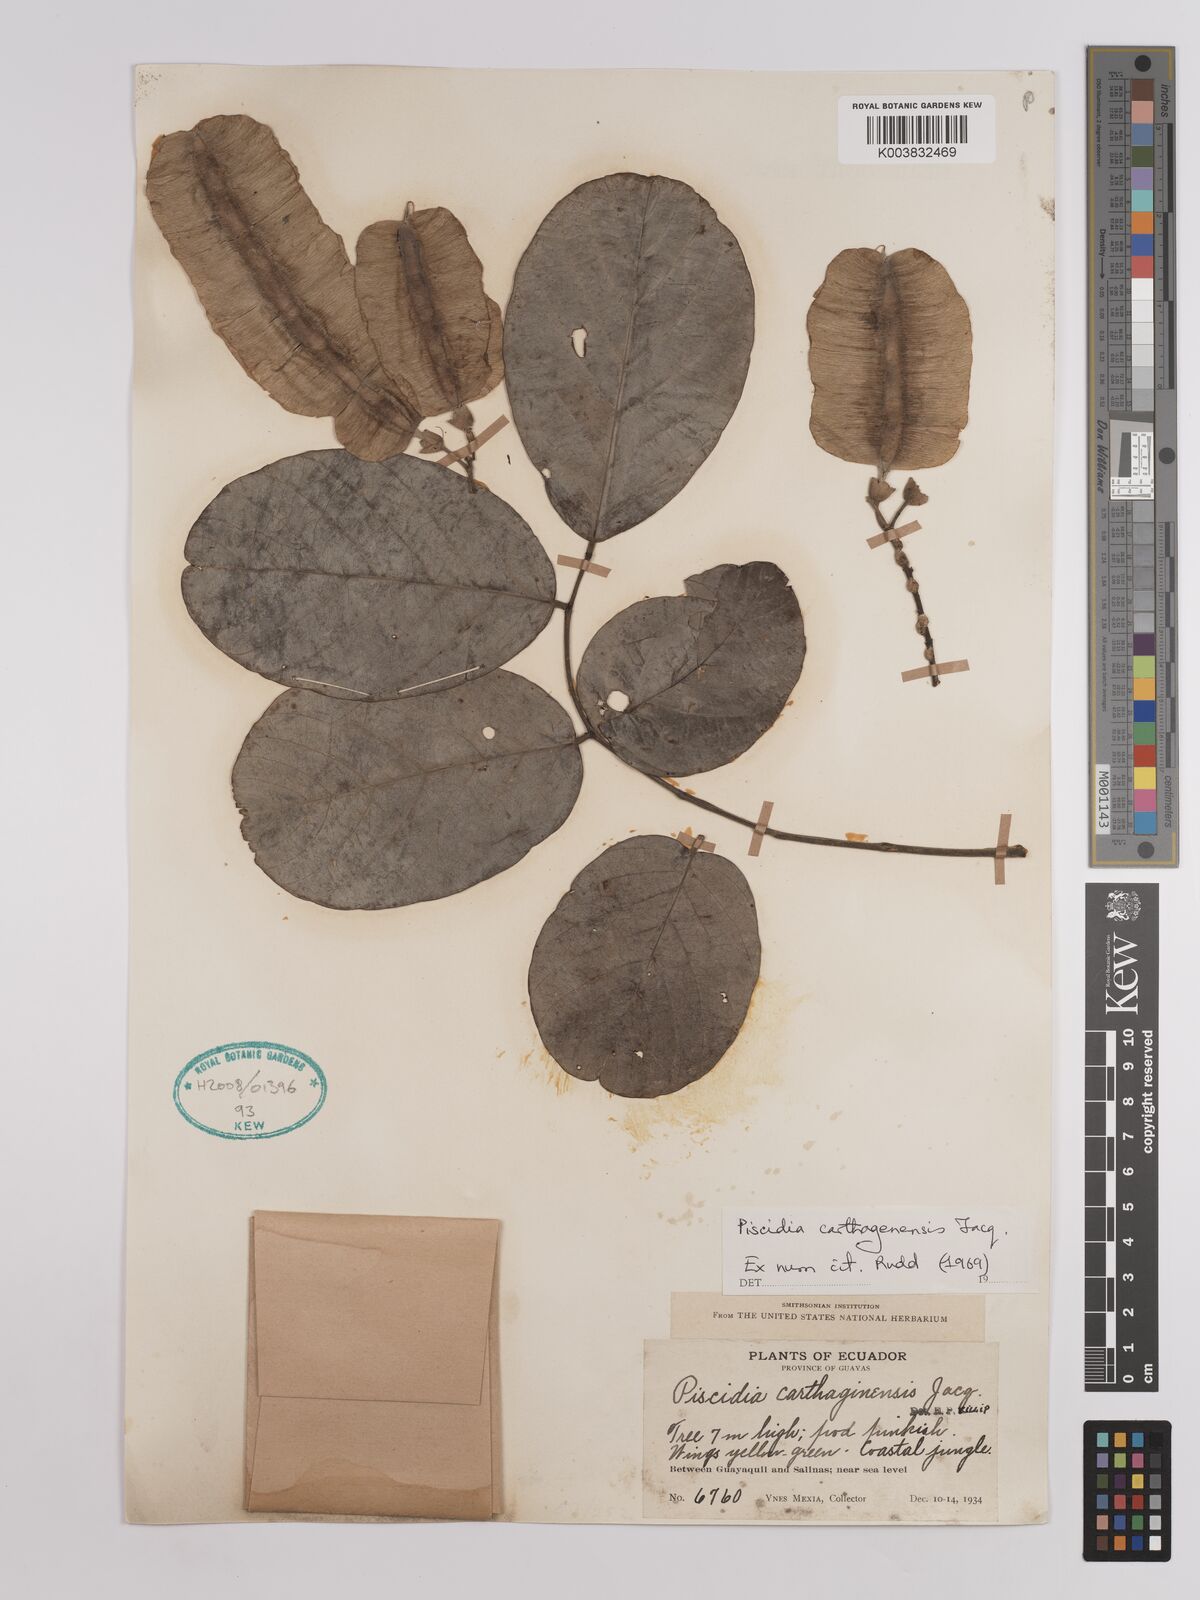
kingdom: Plantae
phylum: Tracheophyta
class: Magnoliopsida
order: Fabales
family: Fabaceae
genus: Piscidia
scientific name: Piscidia carthagenensis
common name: Stinkwood
